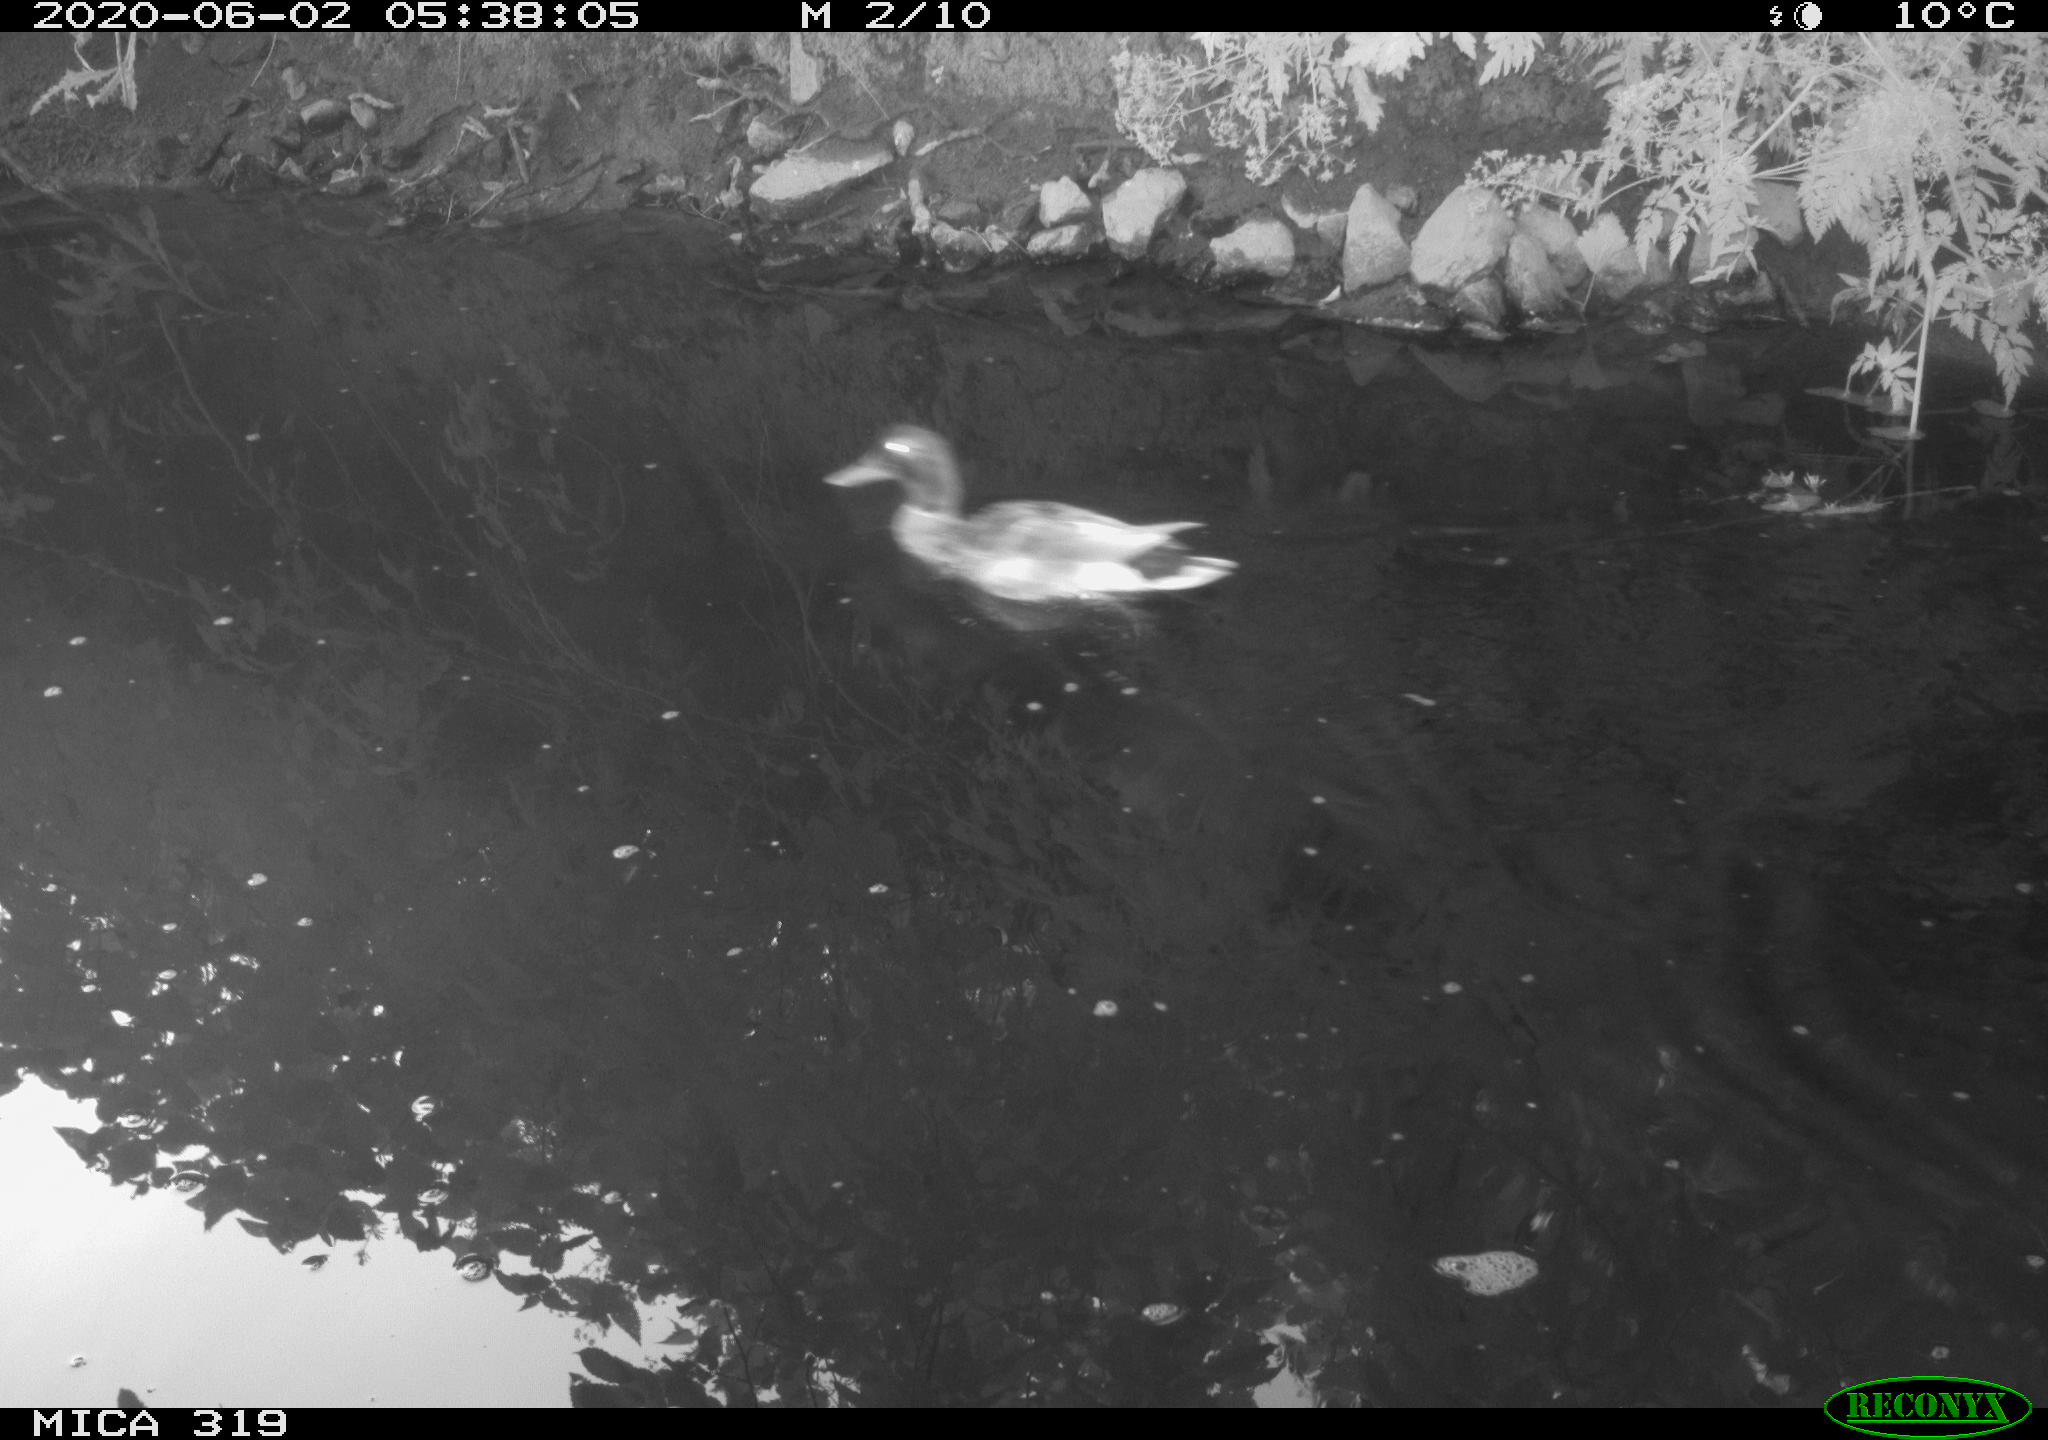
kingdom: Animalia
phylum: Chordata
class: Aves
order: Anseriformes
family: Anatidae
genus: Anas
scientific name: Anas platyrhynchos
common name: Mallard
